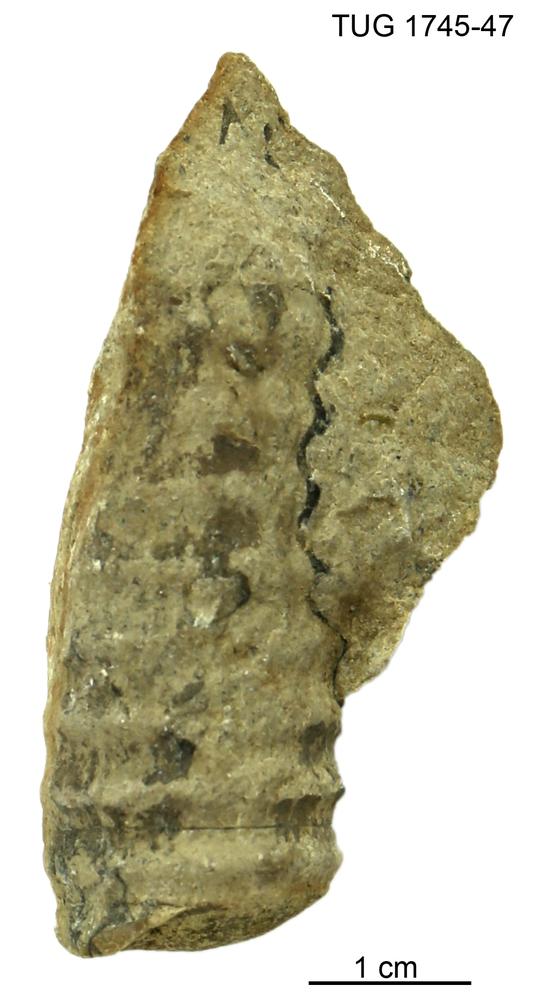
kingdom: Animalia
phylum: Mollusca
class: Cephalopoda
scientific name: Cephalopoda
